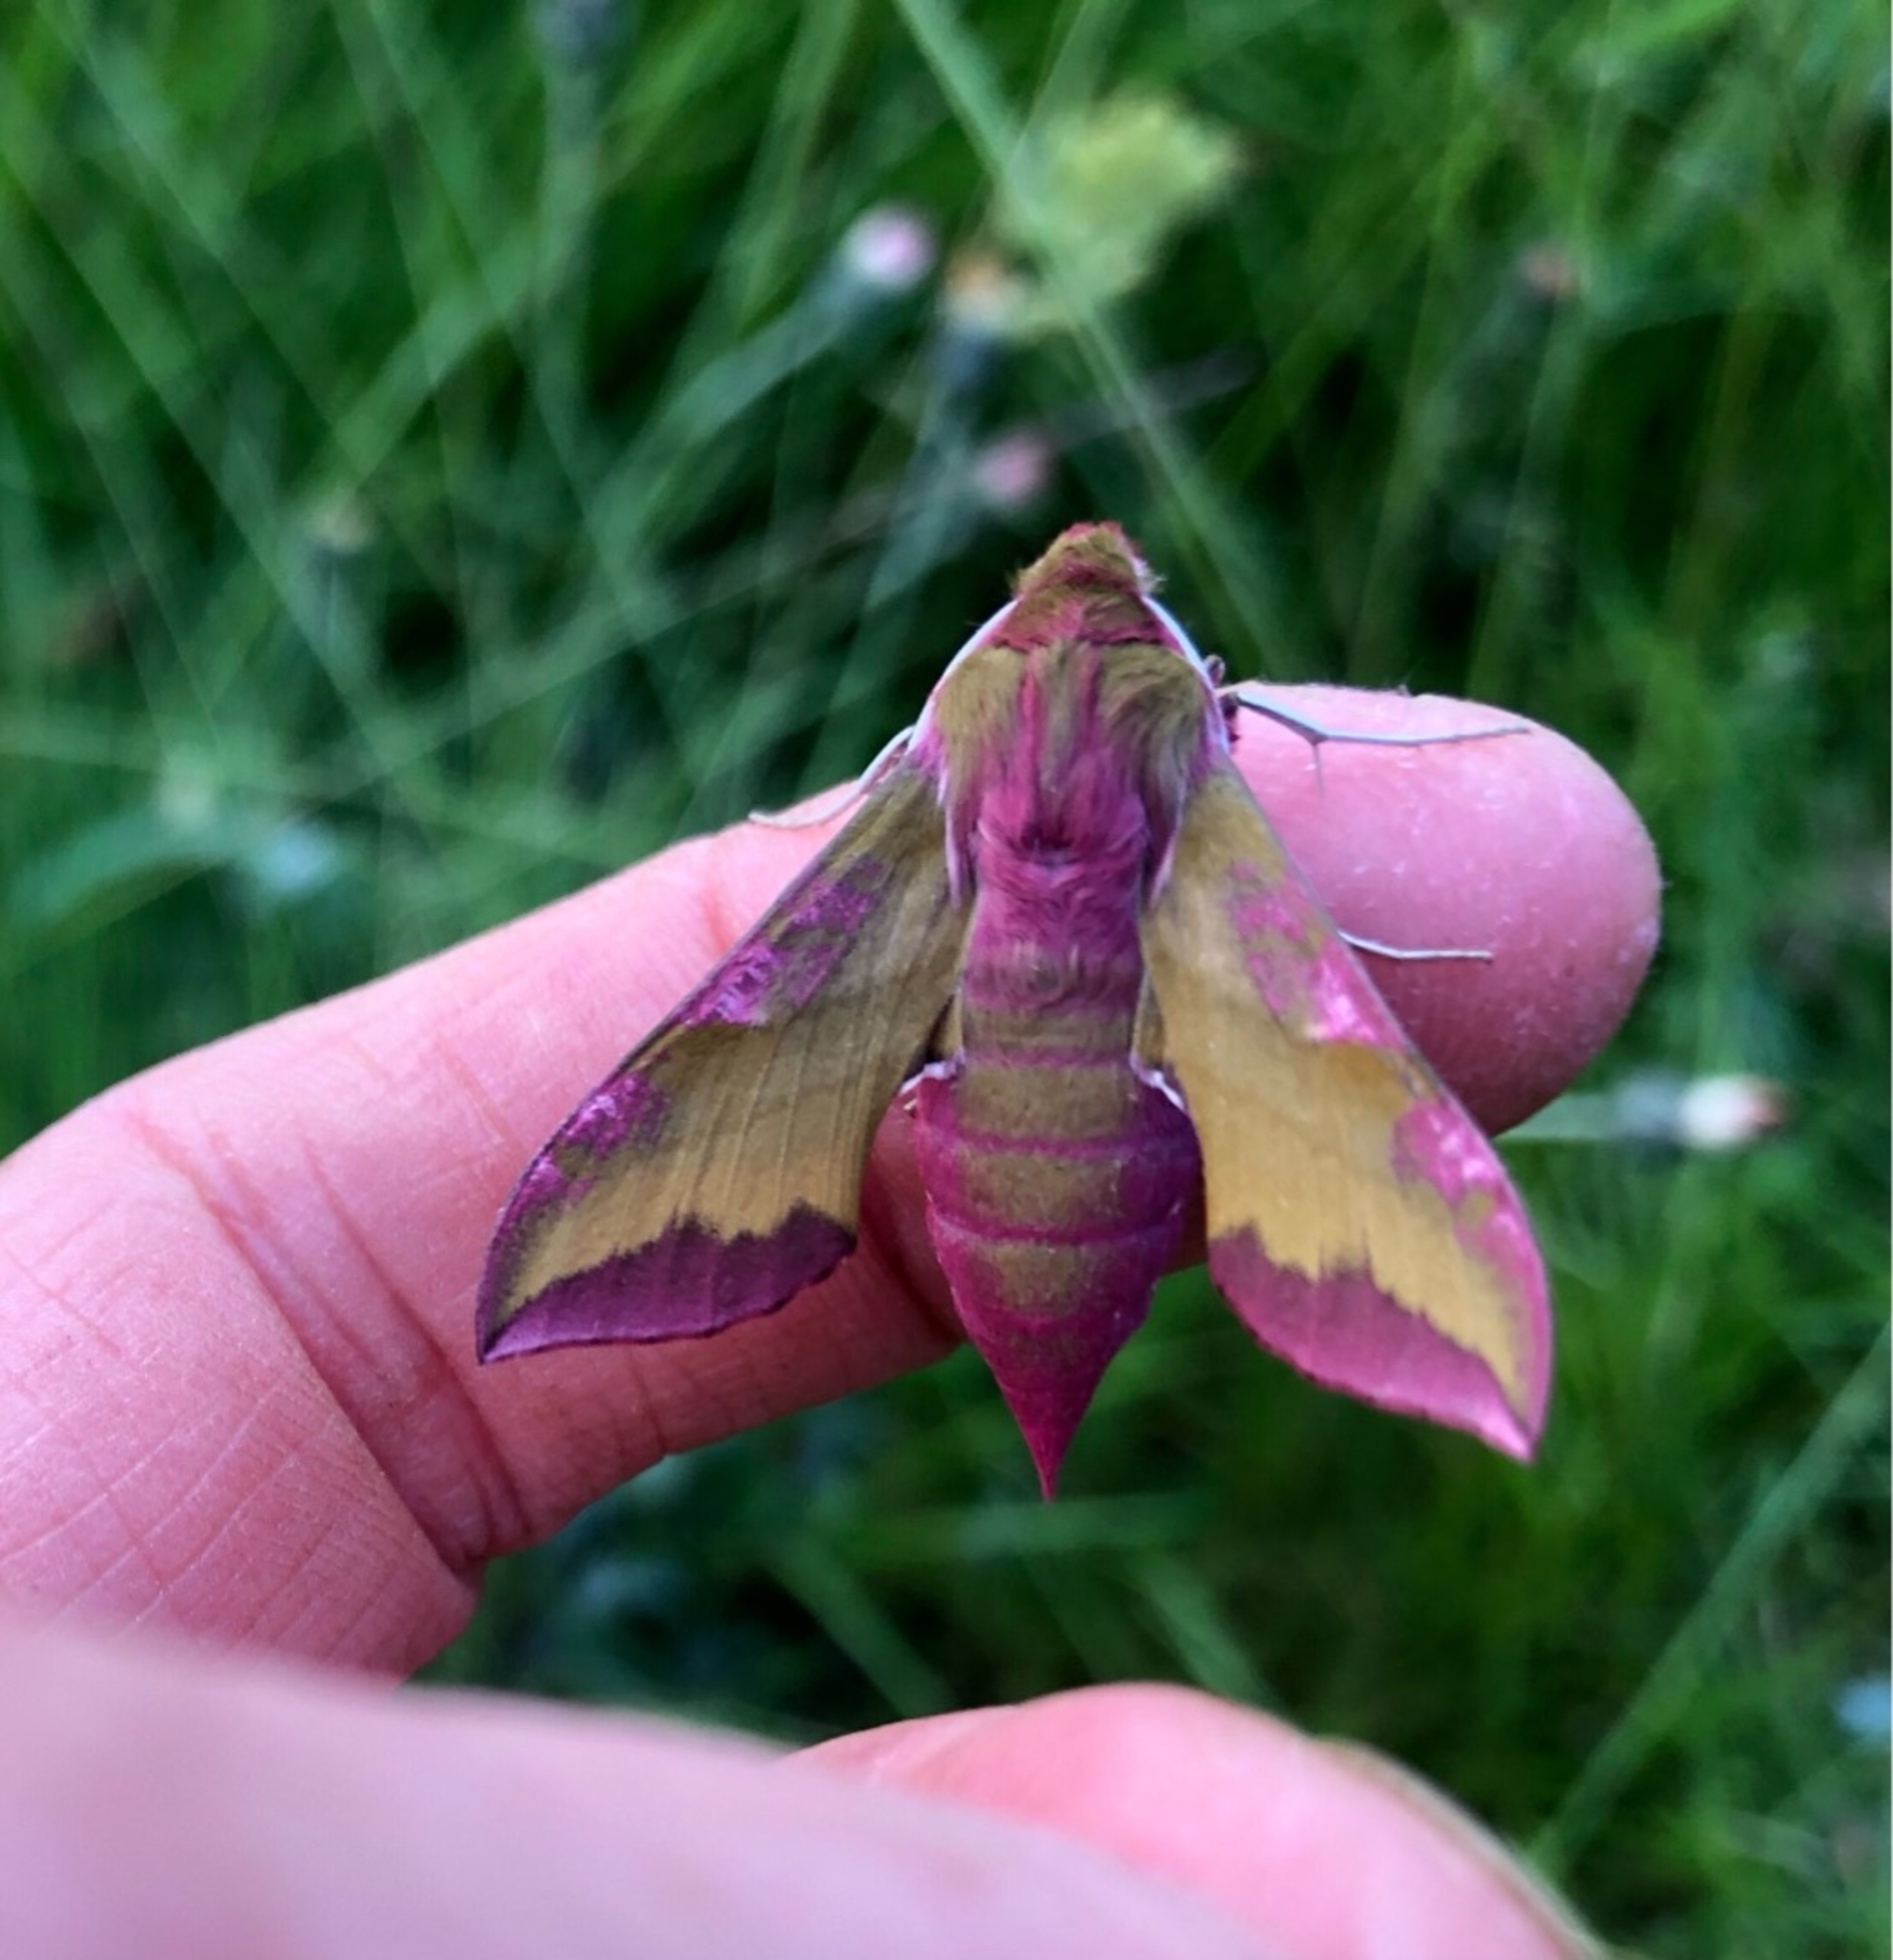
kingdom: Animalia
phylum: Arthropoda
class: Insecta
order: Lepidoptera
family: Sphingidae
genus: Deilephila
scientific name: Deilephila porcellus
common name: Lille vinsværmer
